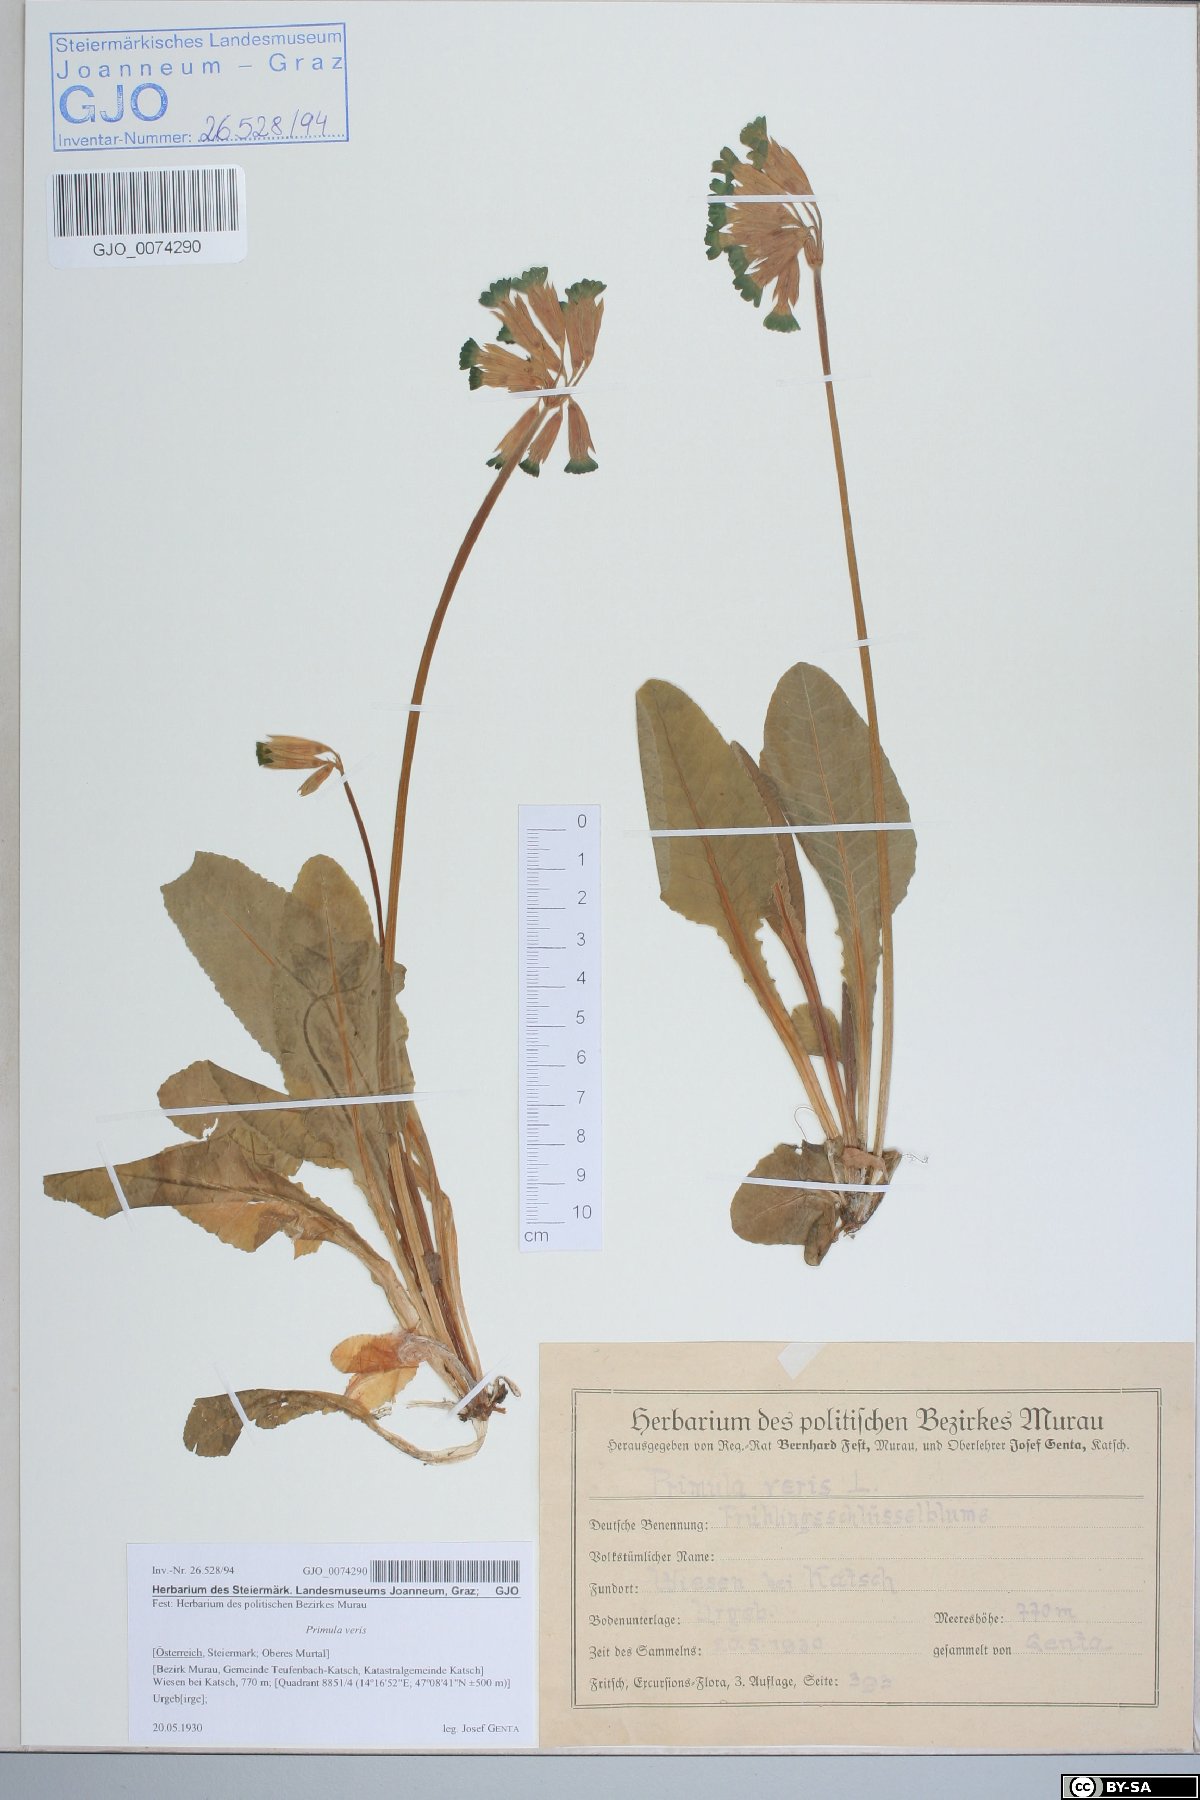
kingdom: Plantae
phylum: Tracheophyta
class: Magnoliopsida
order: Ericales
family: Primulaceae
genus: Primula
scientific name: Primula veris
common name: Cowslip
